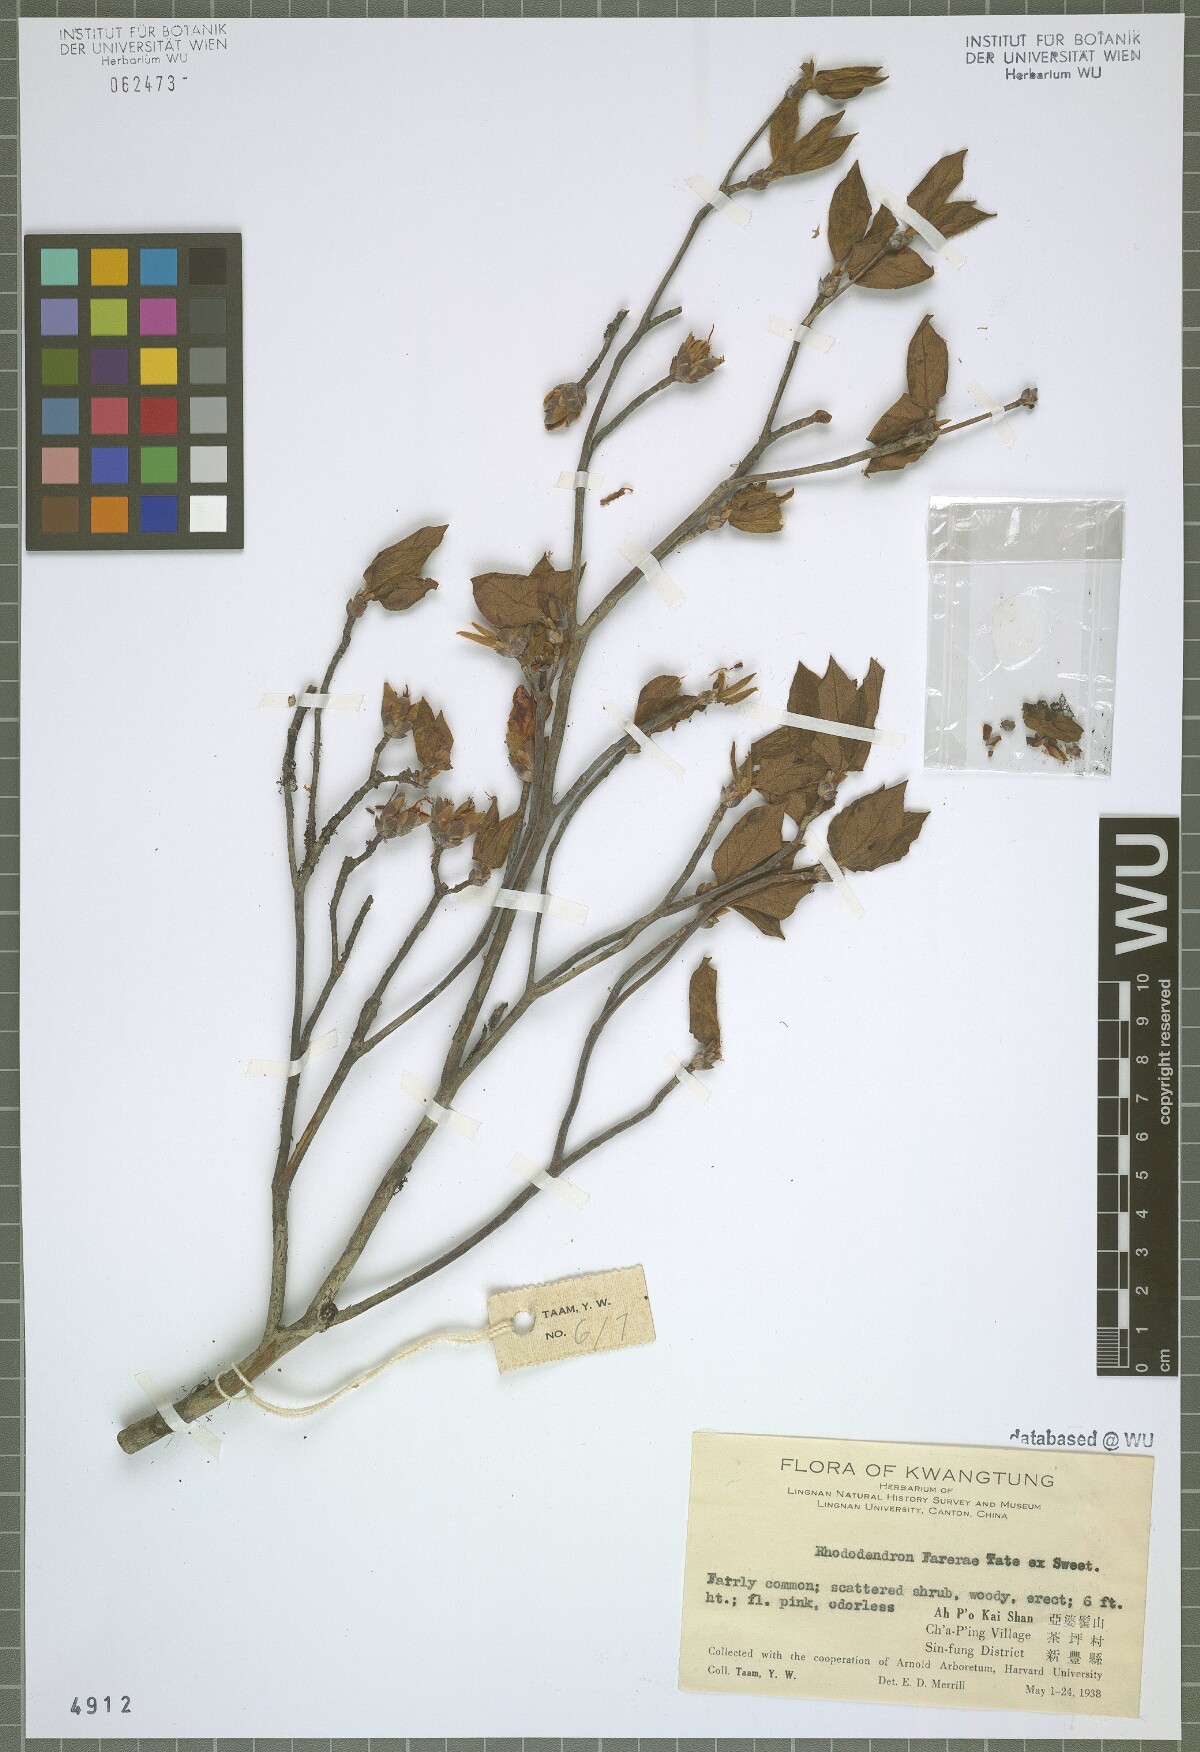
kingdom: Plantae
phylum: Tracheophyta
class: Magnoliopsida
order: Ericales
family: Ericaceae
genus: Rhododendron
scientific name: Rhododendron farrerae
